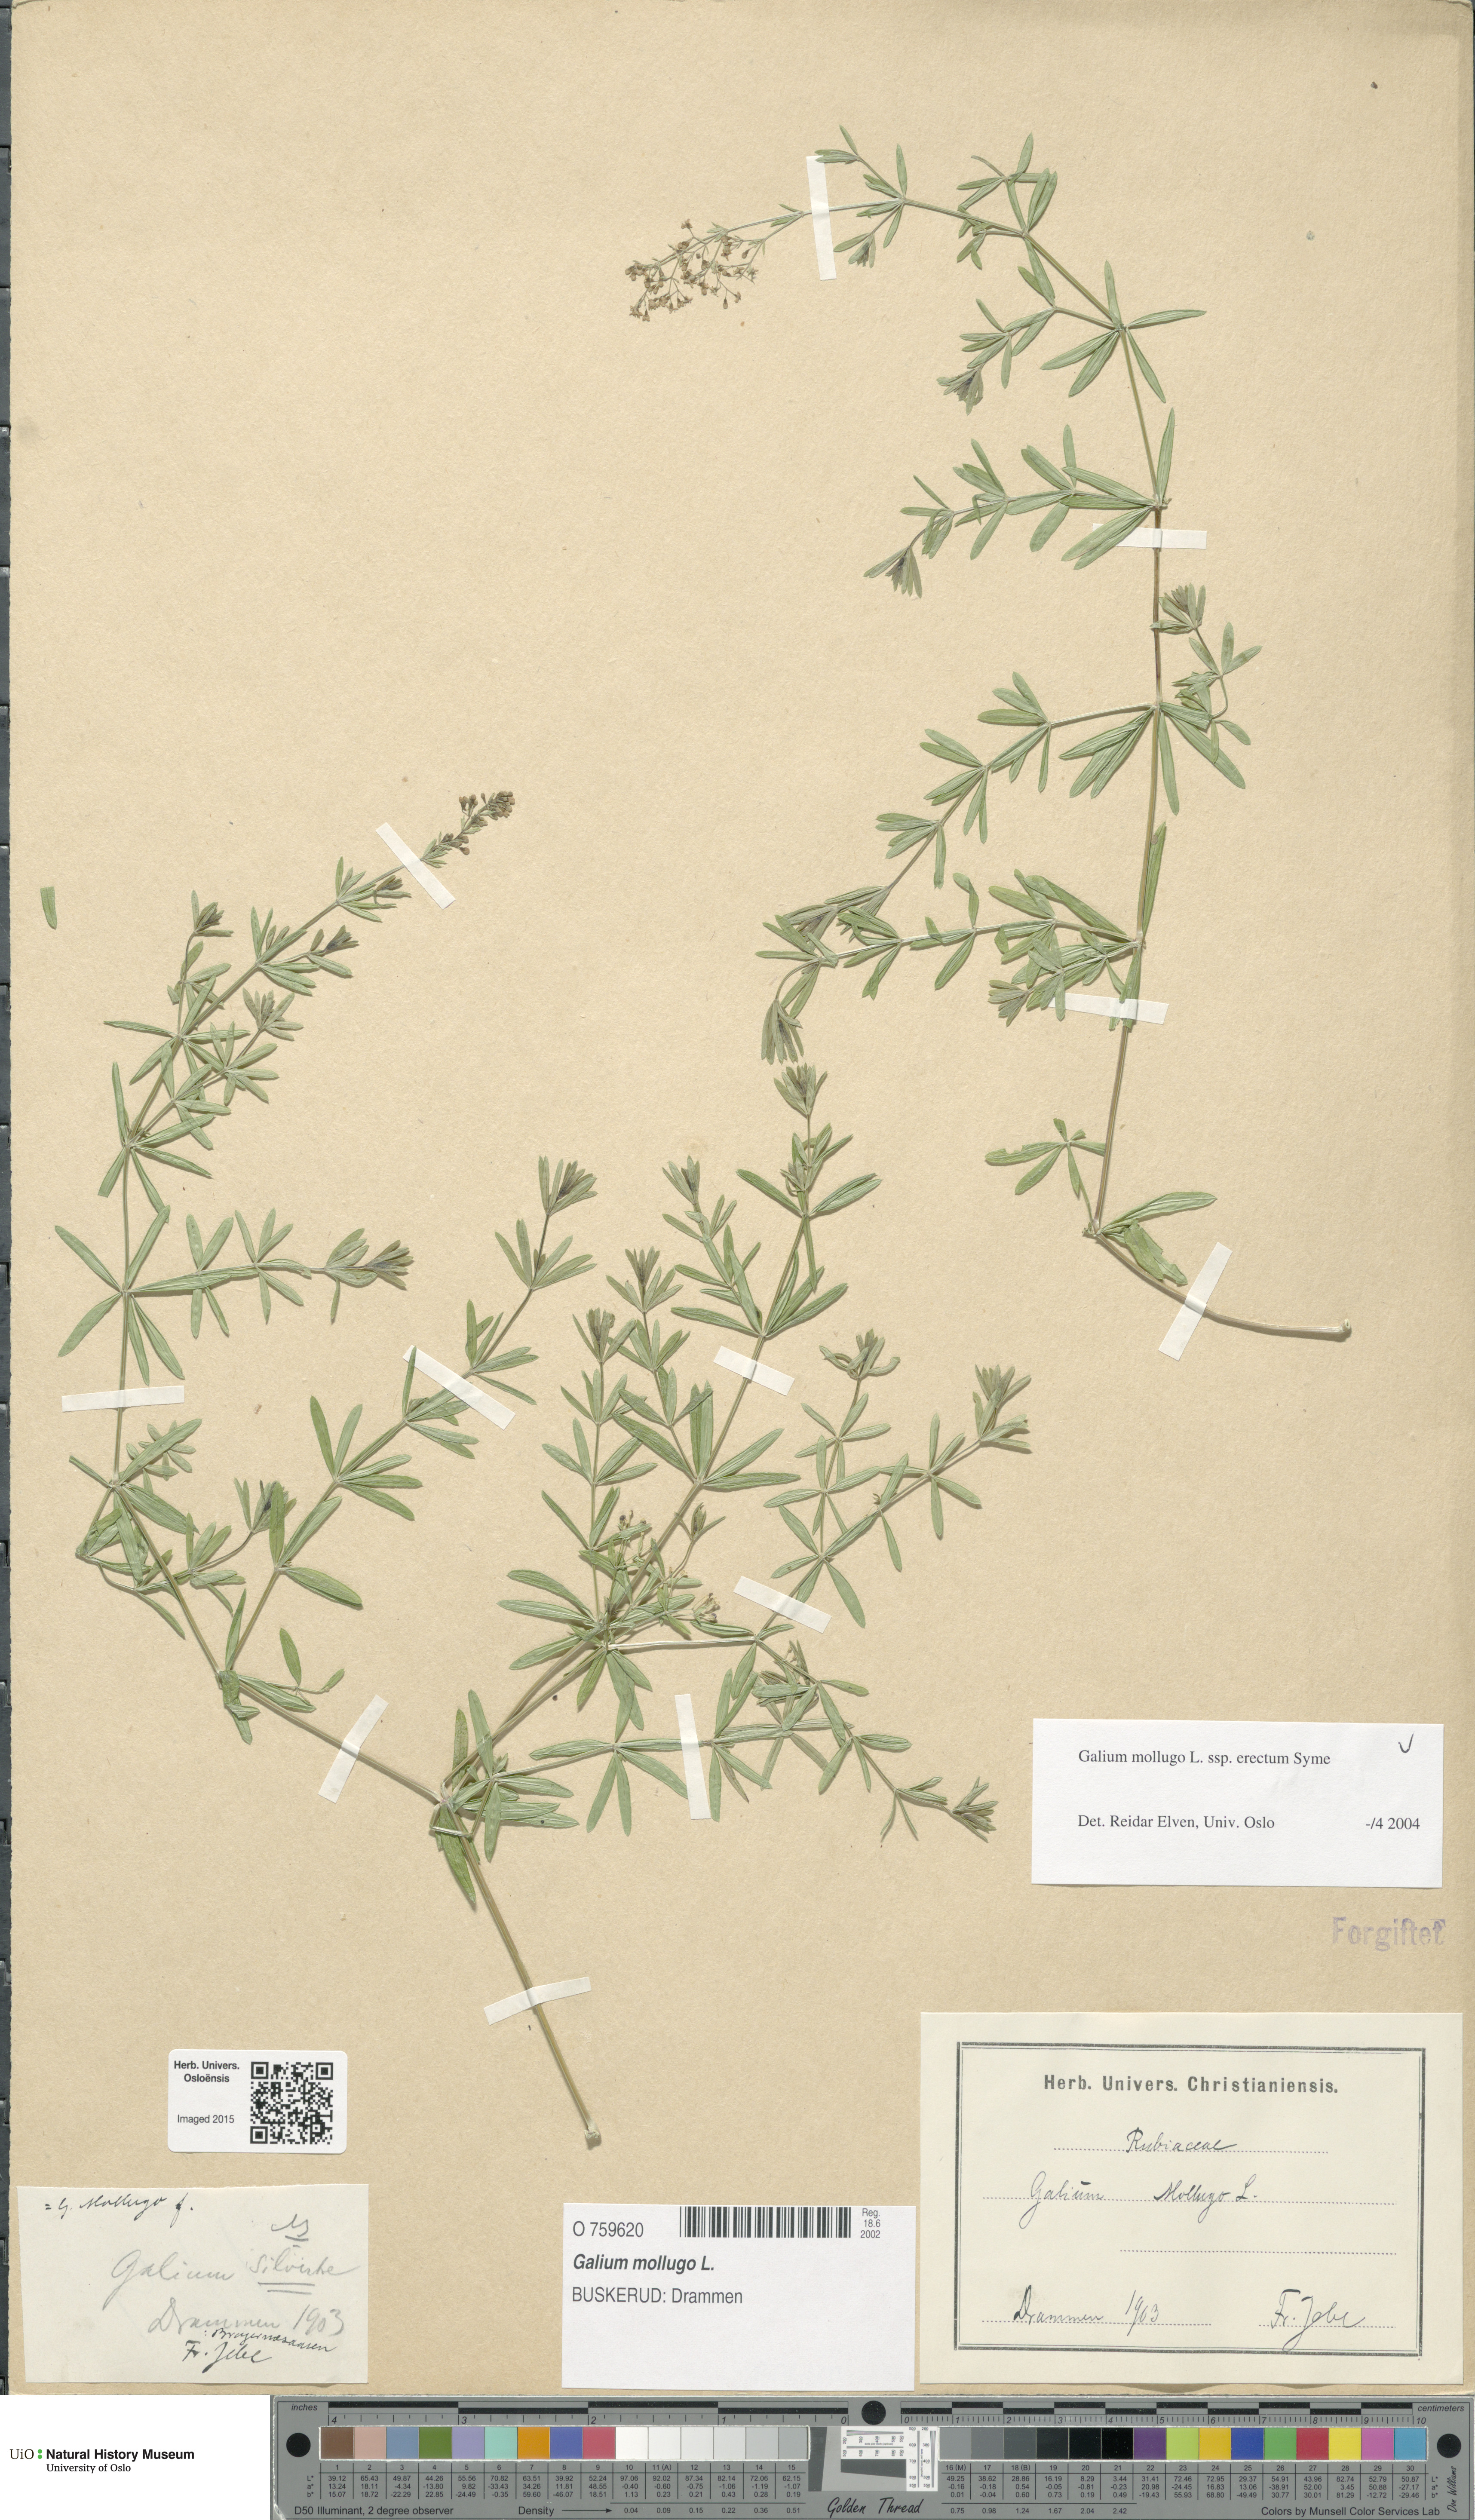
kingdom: Plantae
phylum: Tracheophyta
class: Magnoliopsida
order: Gentianales
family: Rubiaceae
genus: Galium
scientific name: Galium album
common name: White bedstraw
